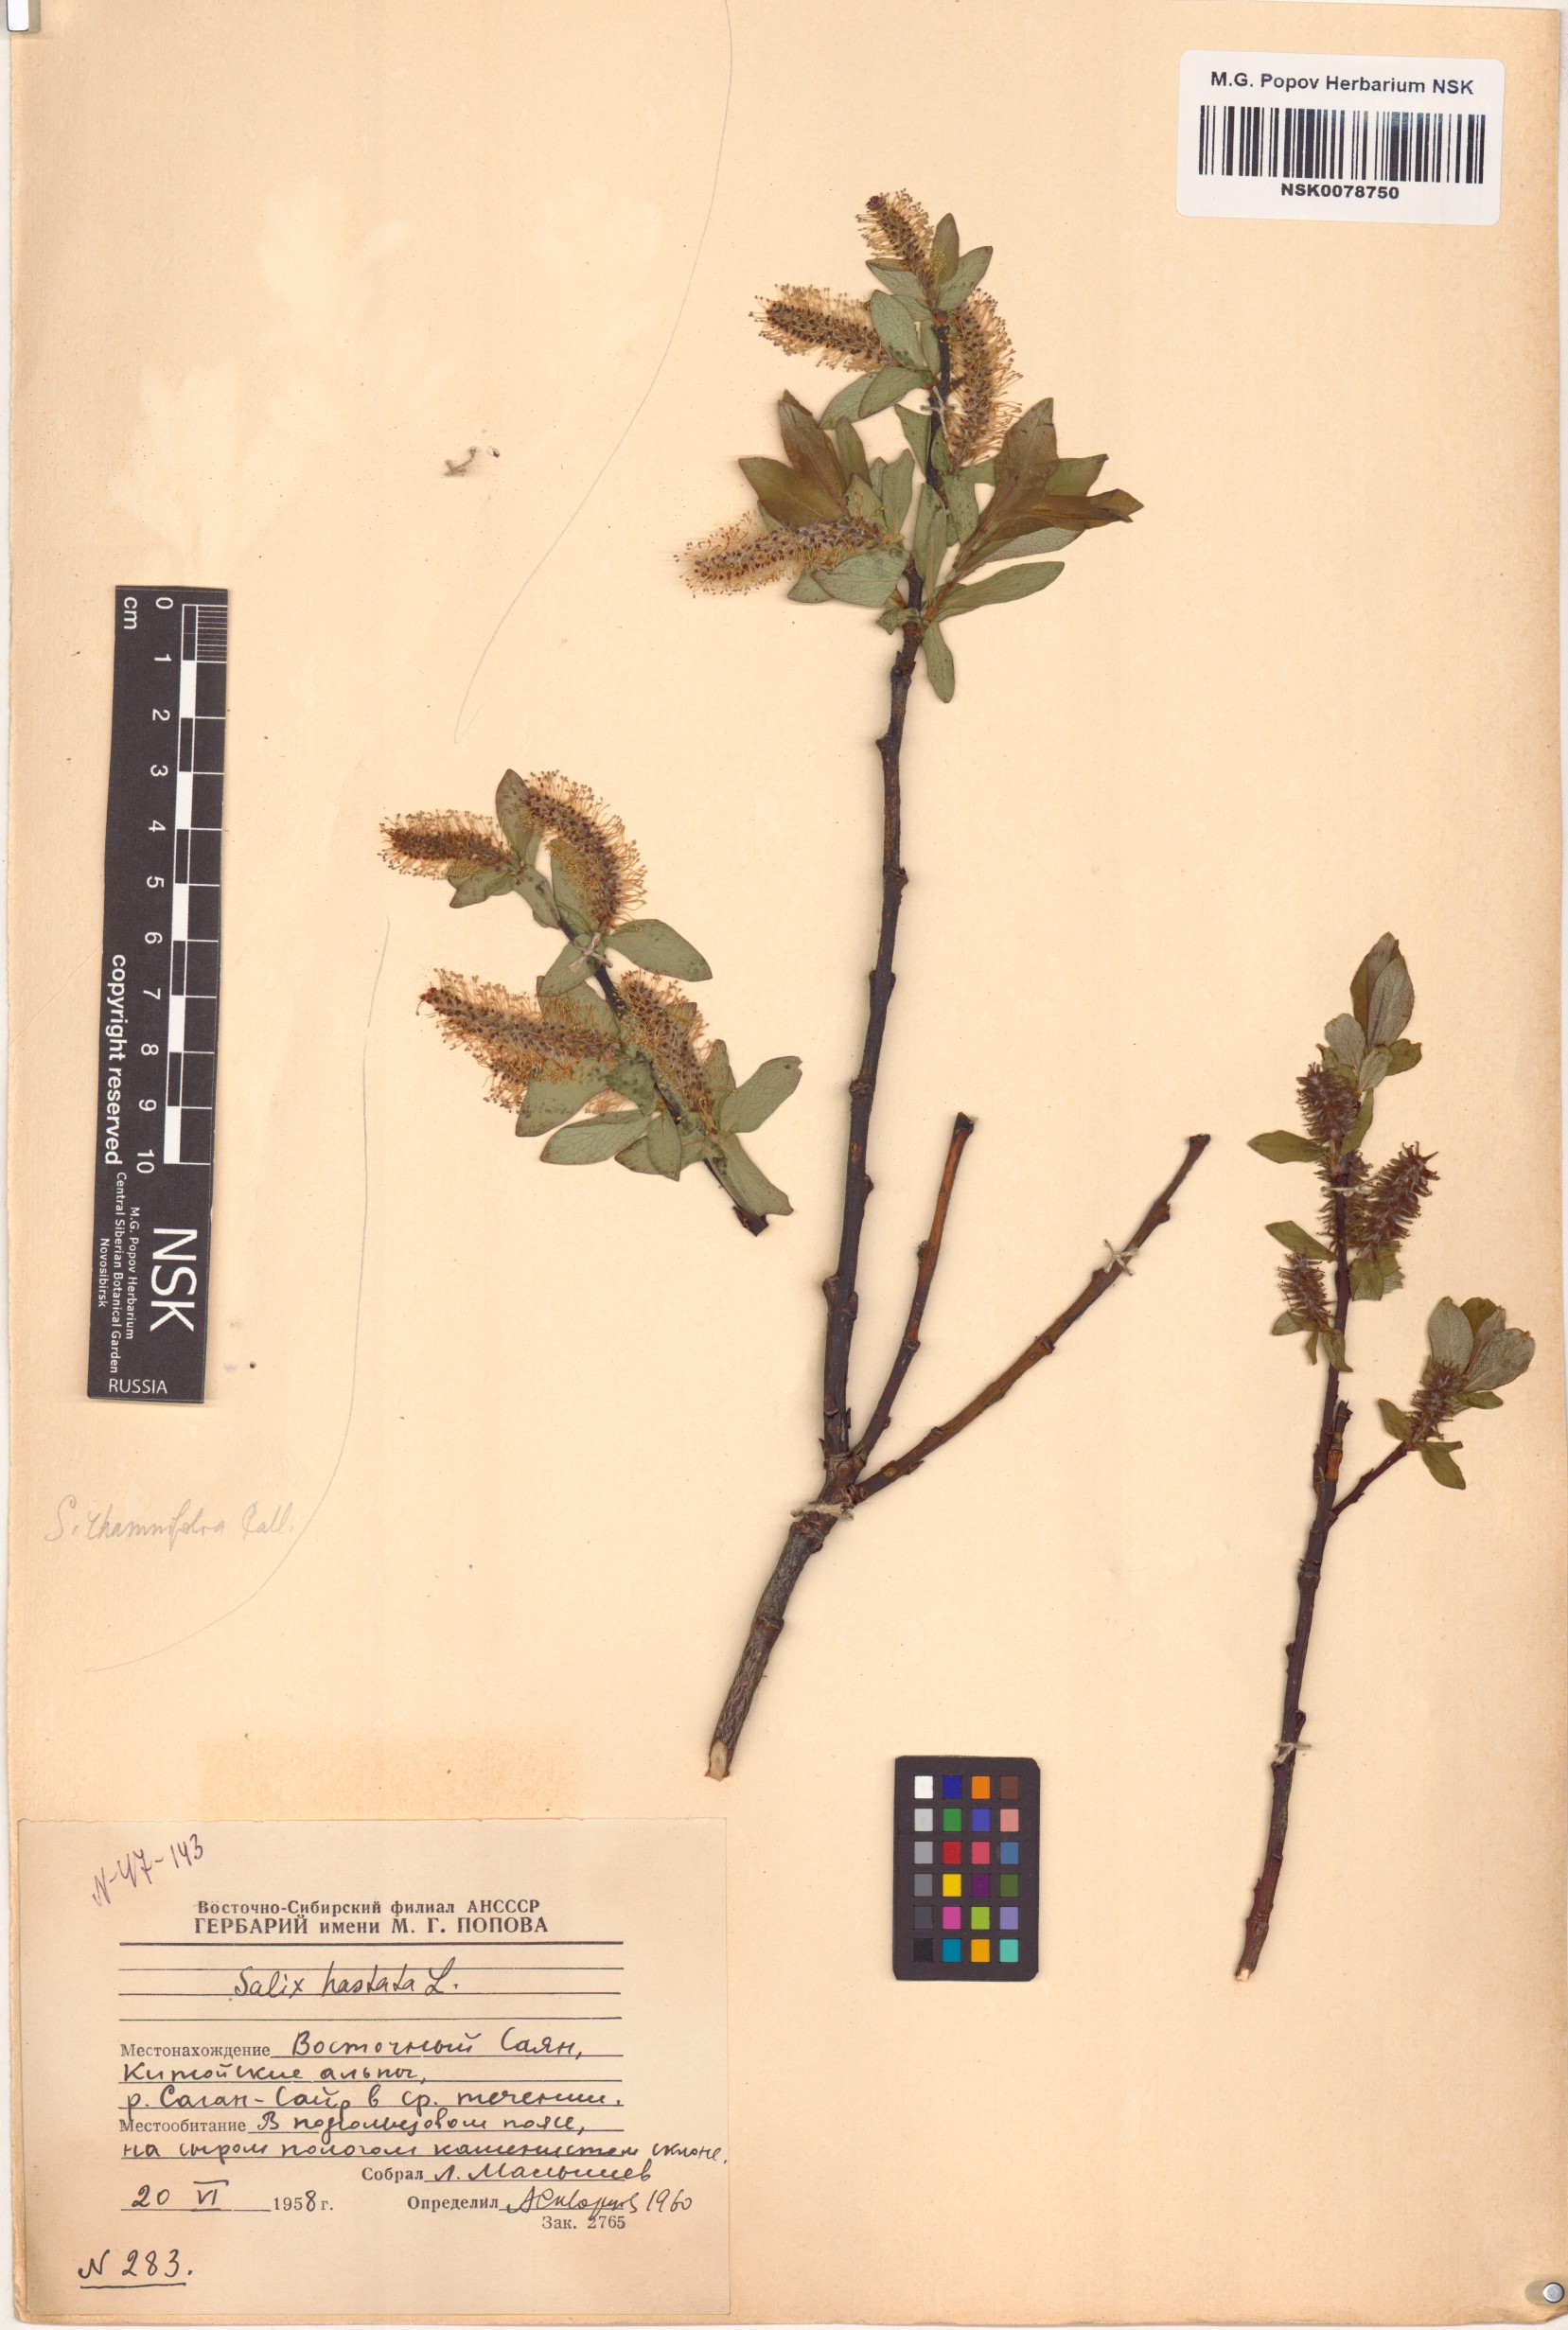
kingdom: Plantae
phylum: Tracheophyta
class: Magnoliopsida
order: Malpighiales
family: Salicaceae
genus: Salix
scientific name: Salix hastata
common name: Halberd willow
